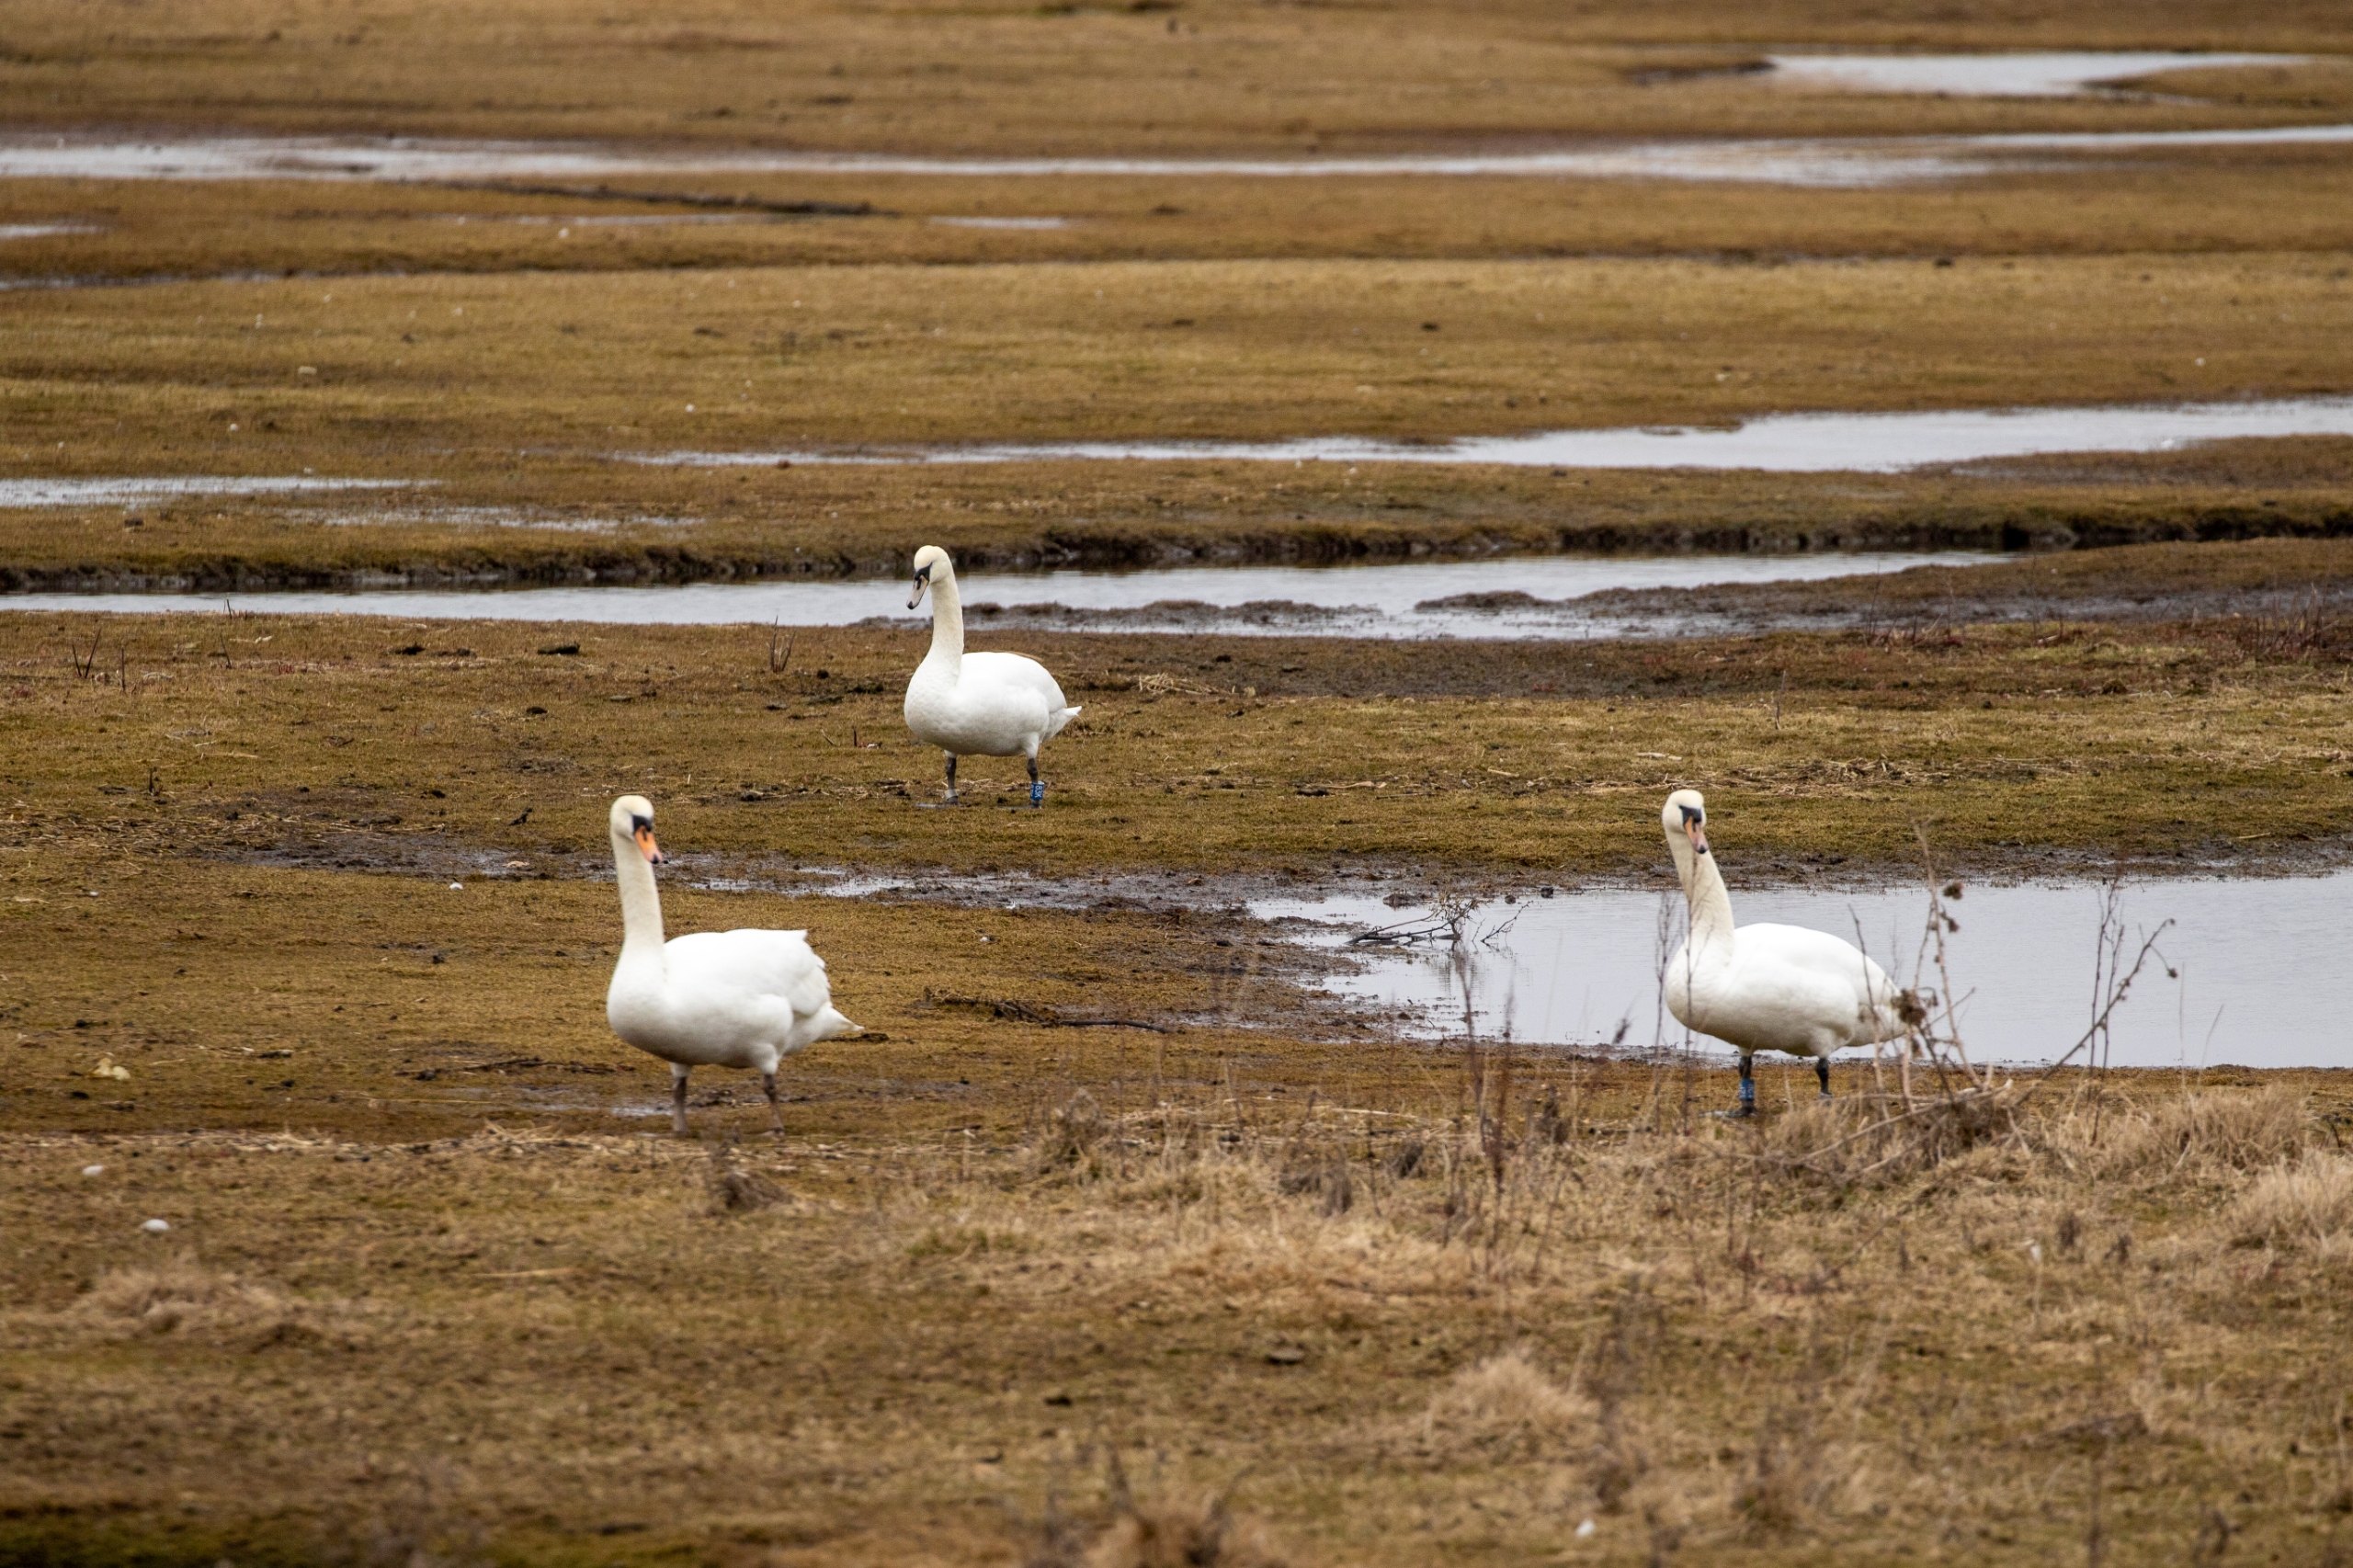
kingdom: Animalia
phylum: Chordata
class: Aves
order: Anseriformes
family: Anatidae
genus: Cygnus
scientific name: Cygnus olor
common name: Knopsvane
